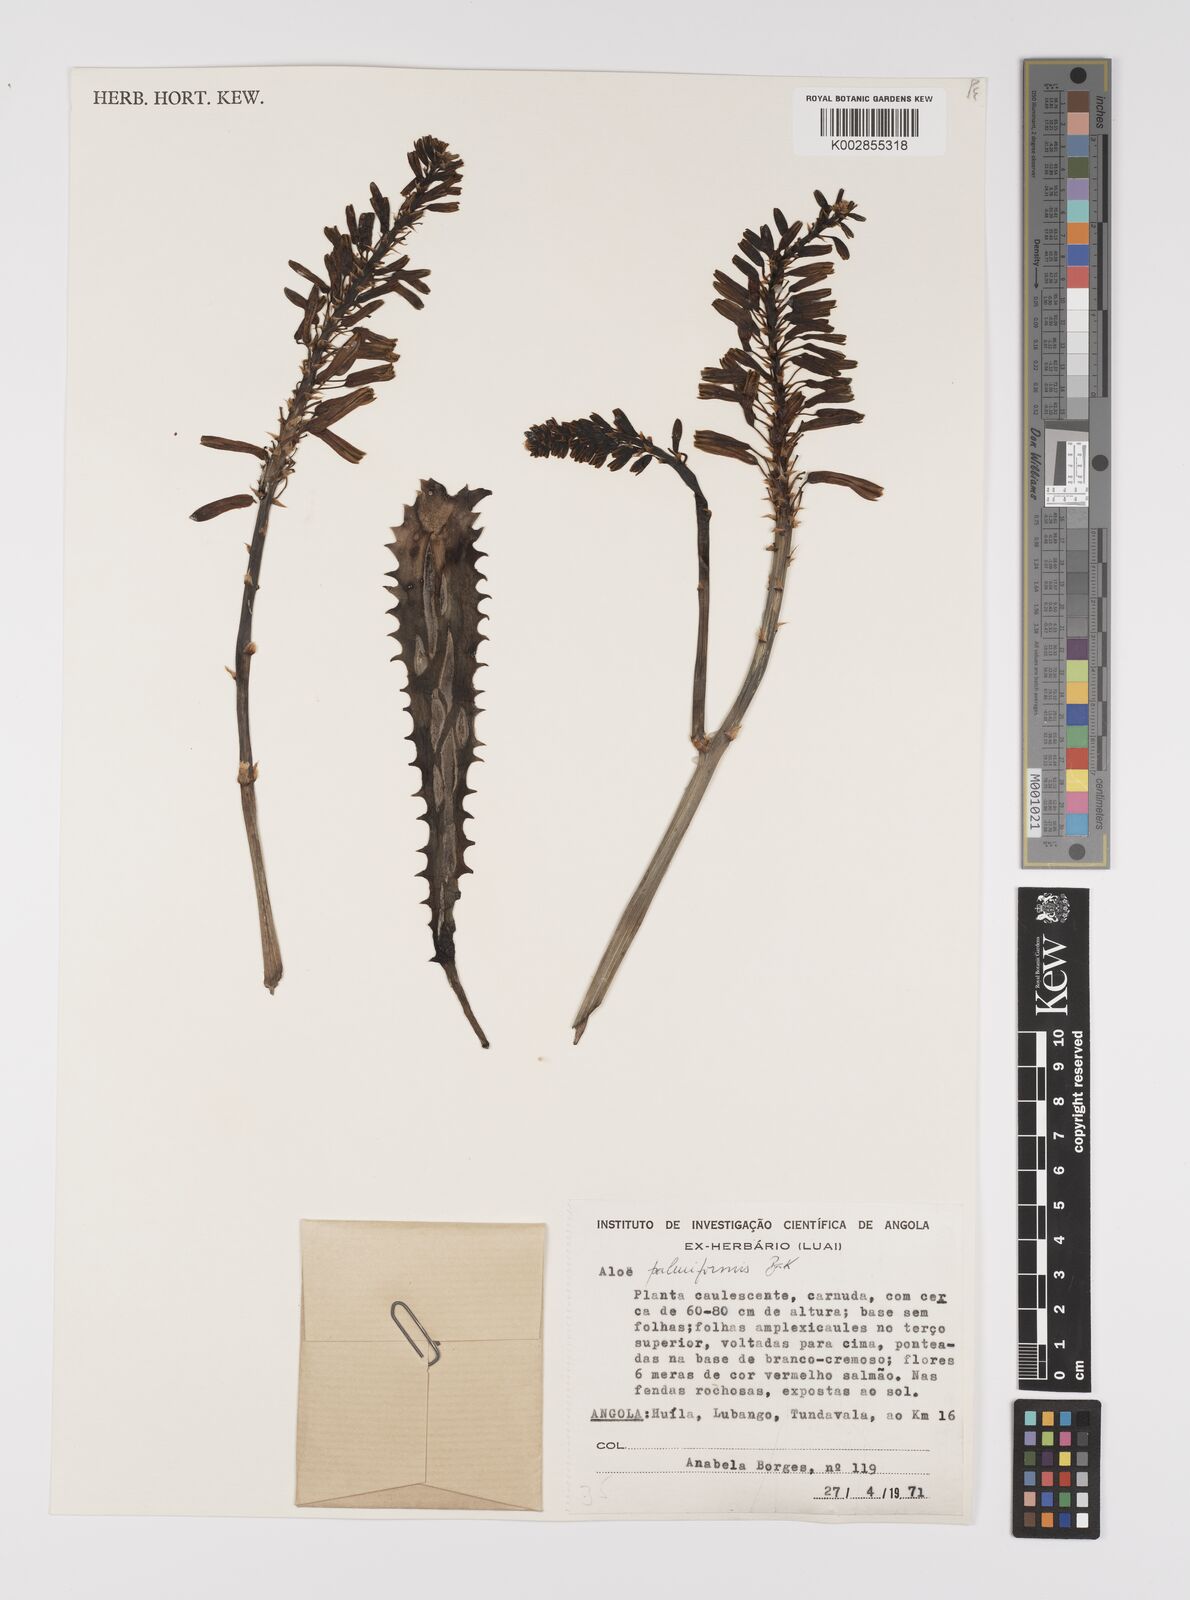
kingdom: Plantae
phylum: Tracheophyta
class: Liliopsida
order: Asparagales
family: Asphodelaceae
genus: Aloe
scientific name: Aloe palmiformis
